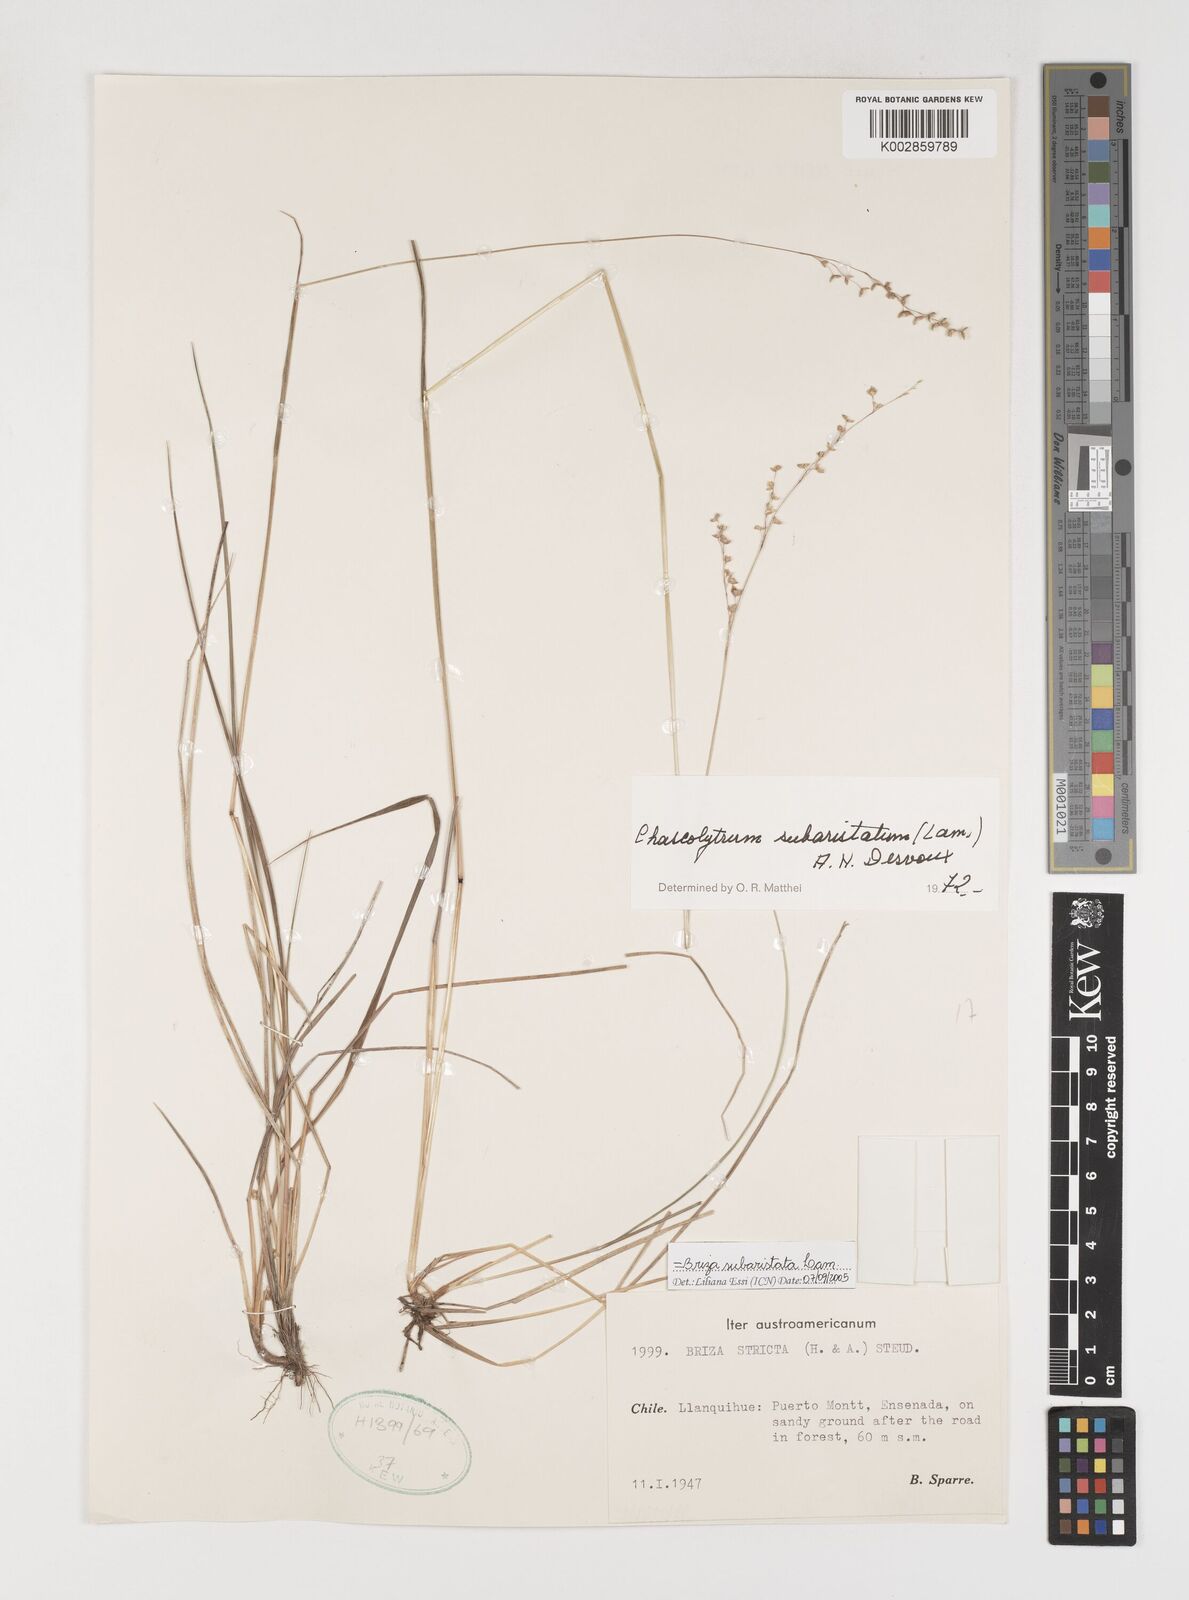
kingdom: Plantae
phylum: Tracheophyta
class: Liliopsida
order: Poales
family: Poaceae
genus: Chascolytrum
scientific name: Chascolytrum subaristatum
